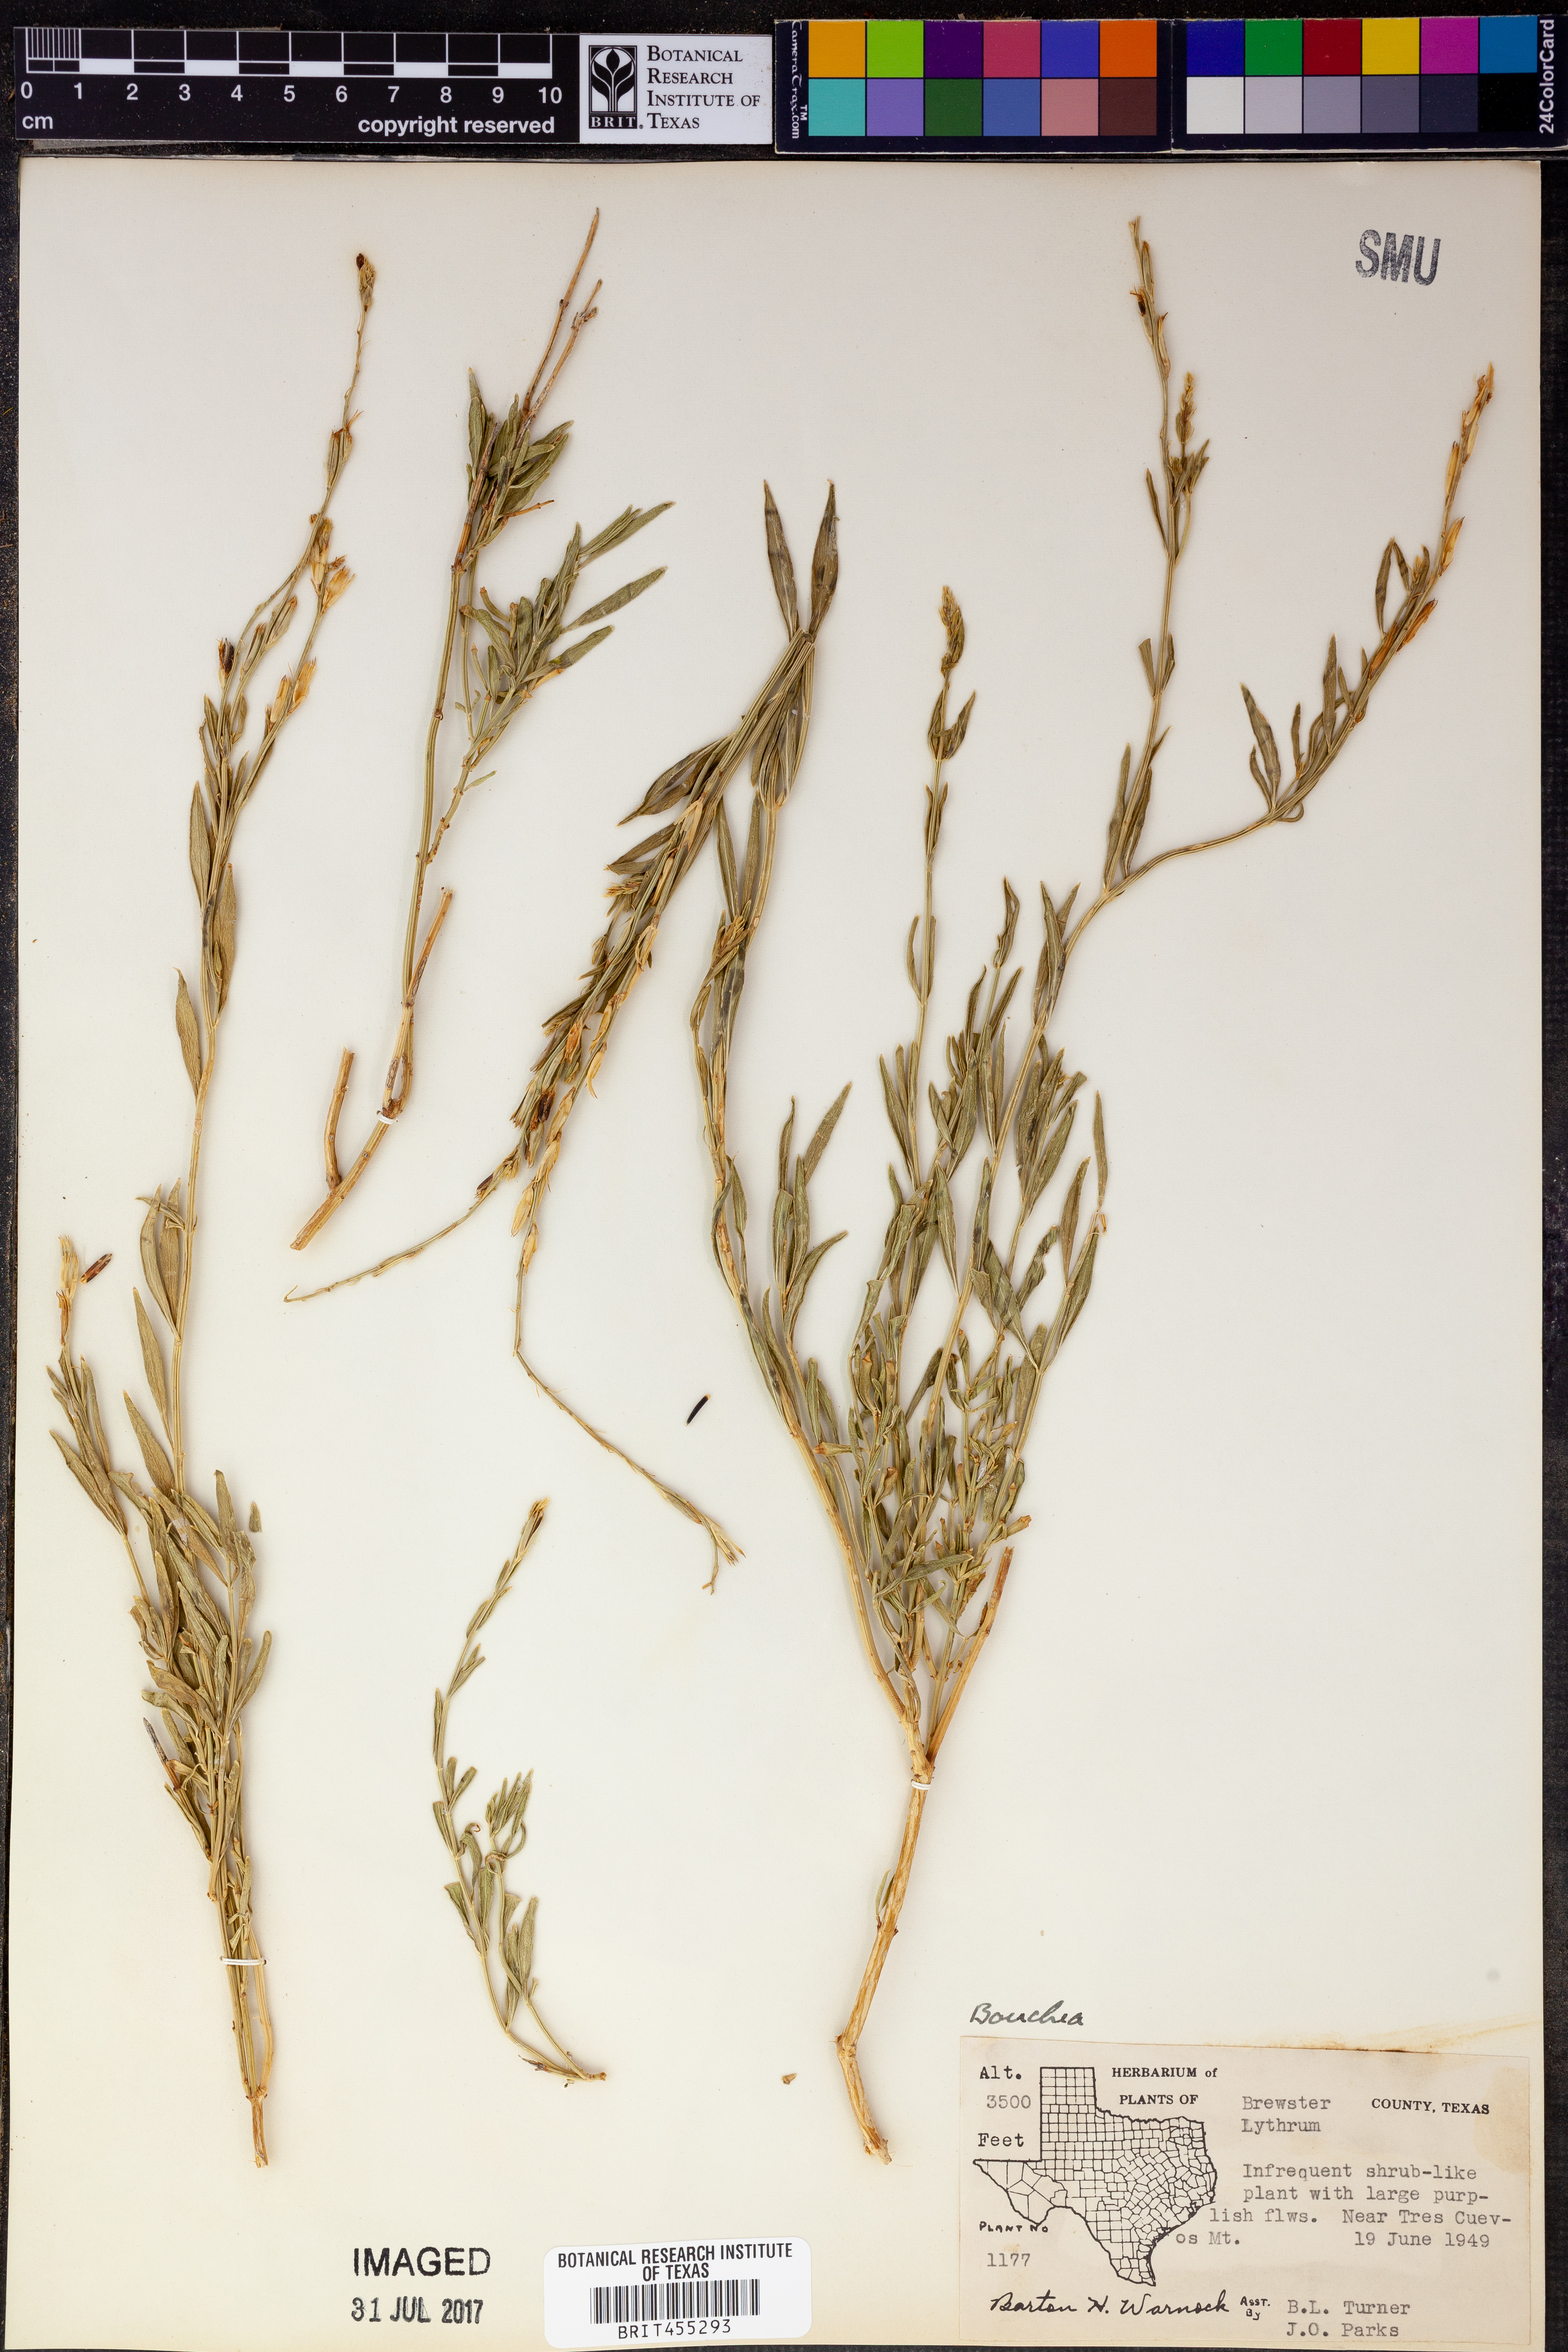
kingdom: Plantae
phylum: Tracheophyta
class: Magnoliopsida
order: Lamiales
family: Verbenaceae
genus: Bouchea
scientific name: Bouchea
